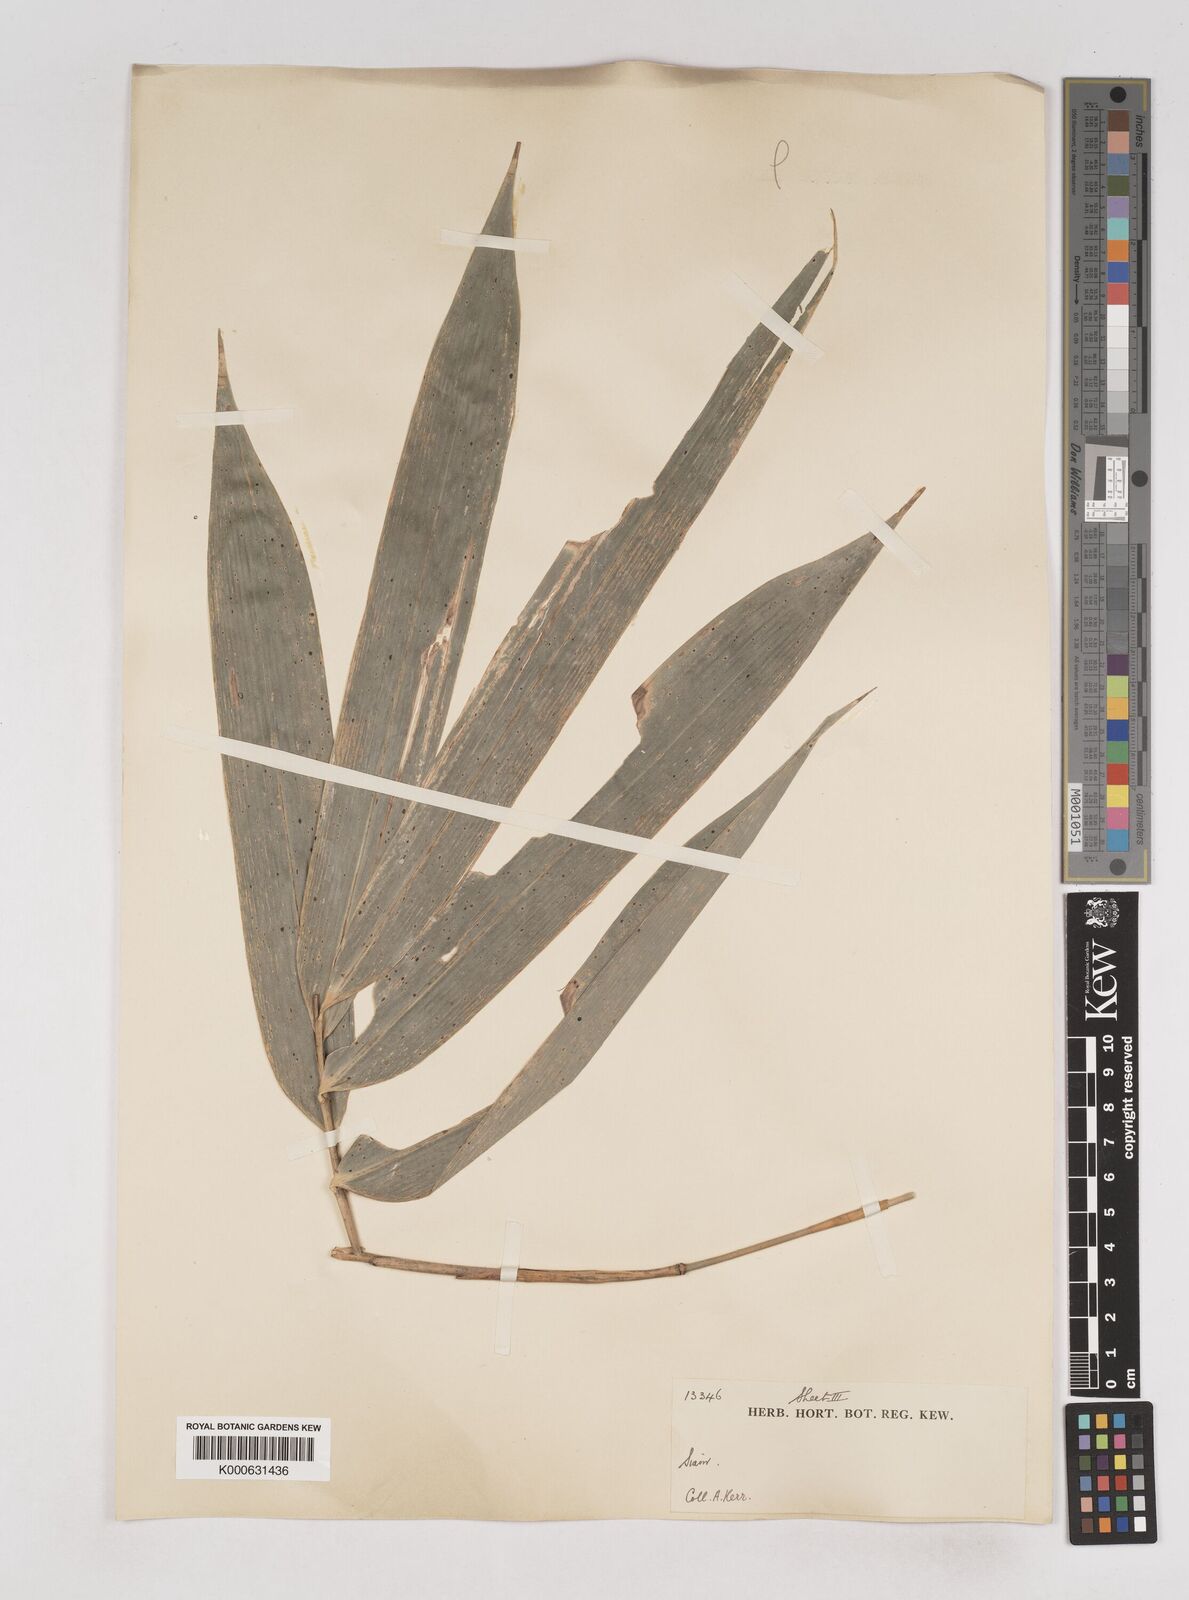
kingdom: Plantae
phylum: Tracheophyta
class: Liliopsida
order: Poales
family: Poaceae
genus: Schizostachyum
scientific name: Schizostachyum grande
